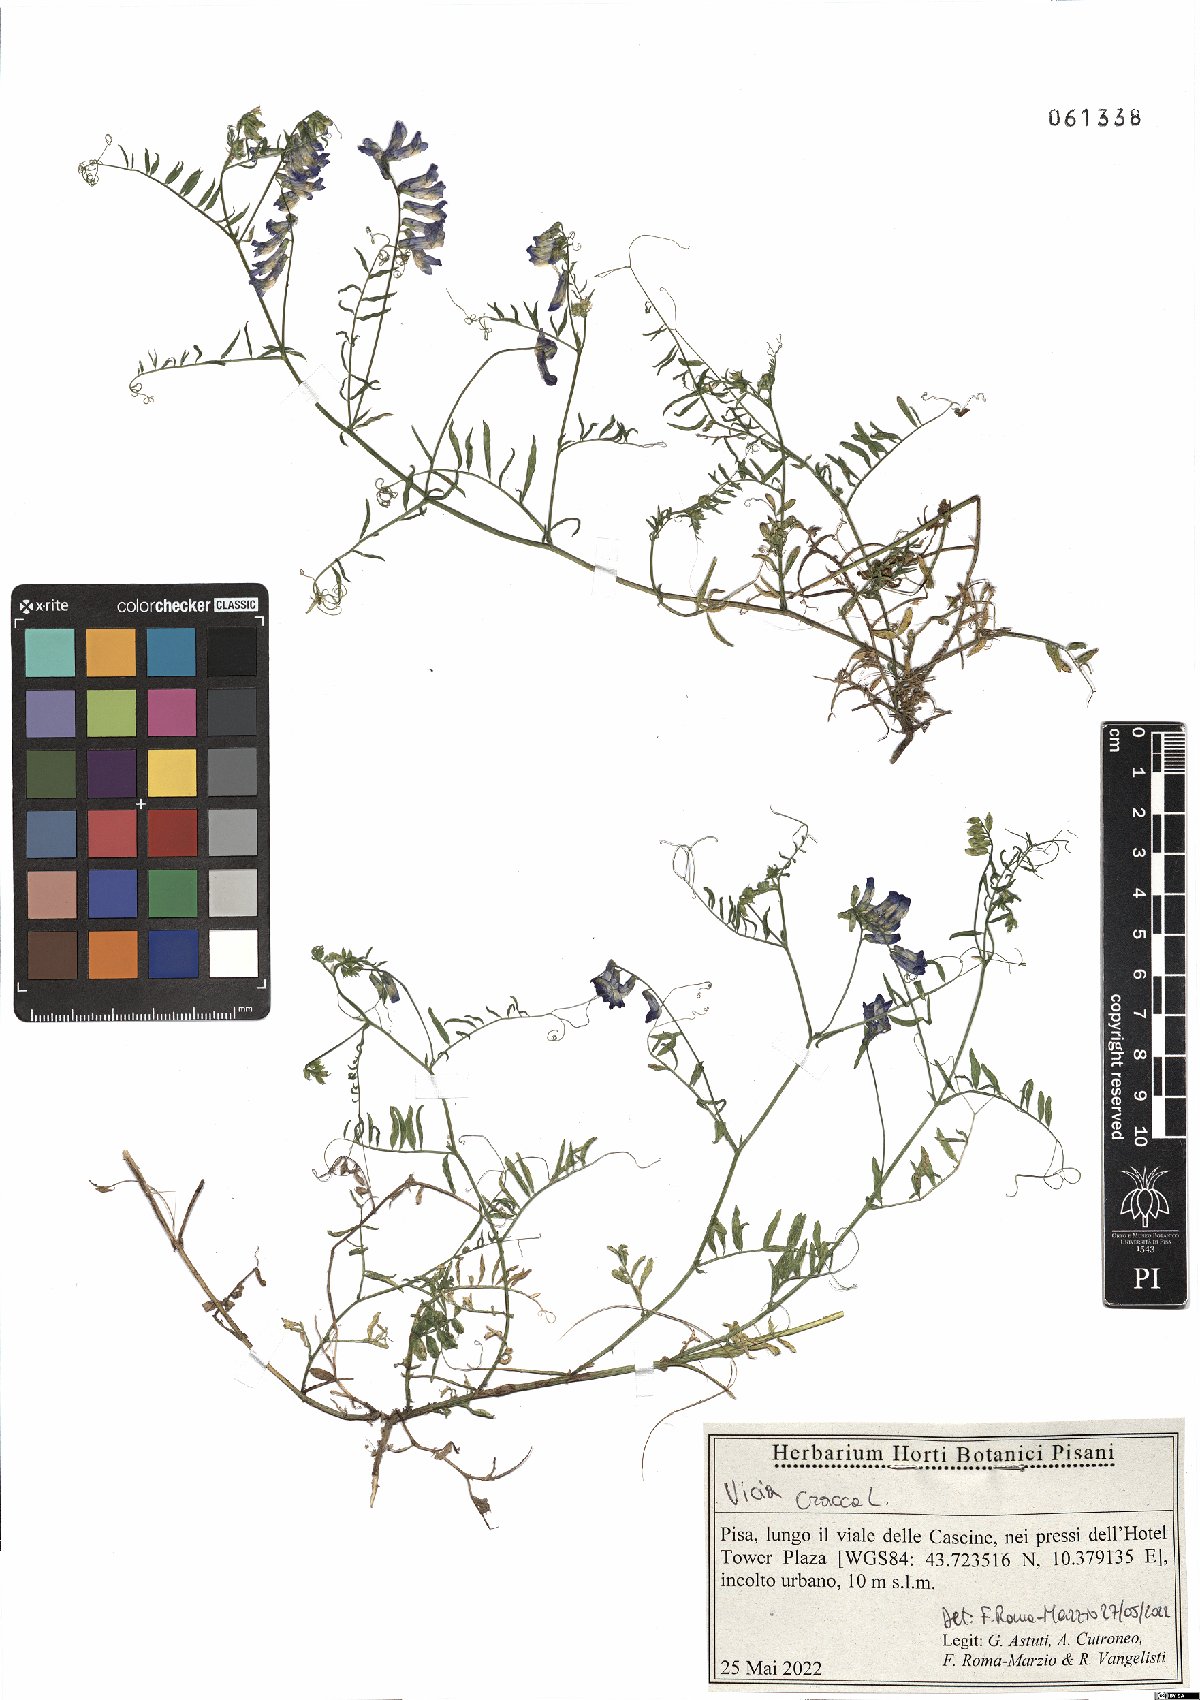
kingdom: Plantae
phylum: Tracheophyta
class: Magnoliopsida
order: Fabales
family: Fabaceae
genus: Vicia
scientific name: Vicia cracca
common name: Bird vetch
